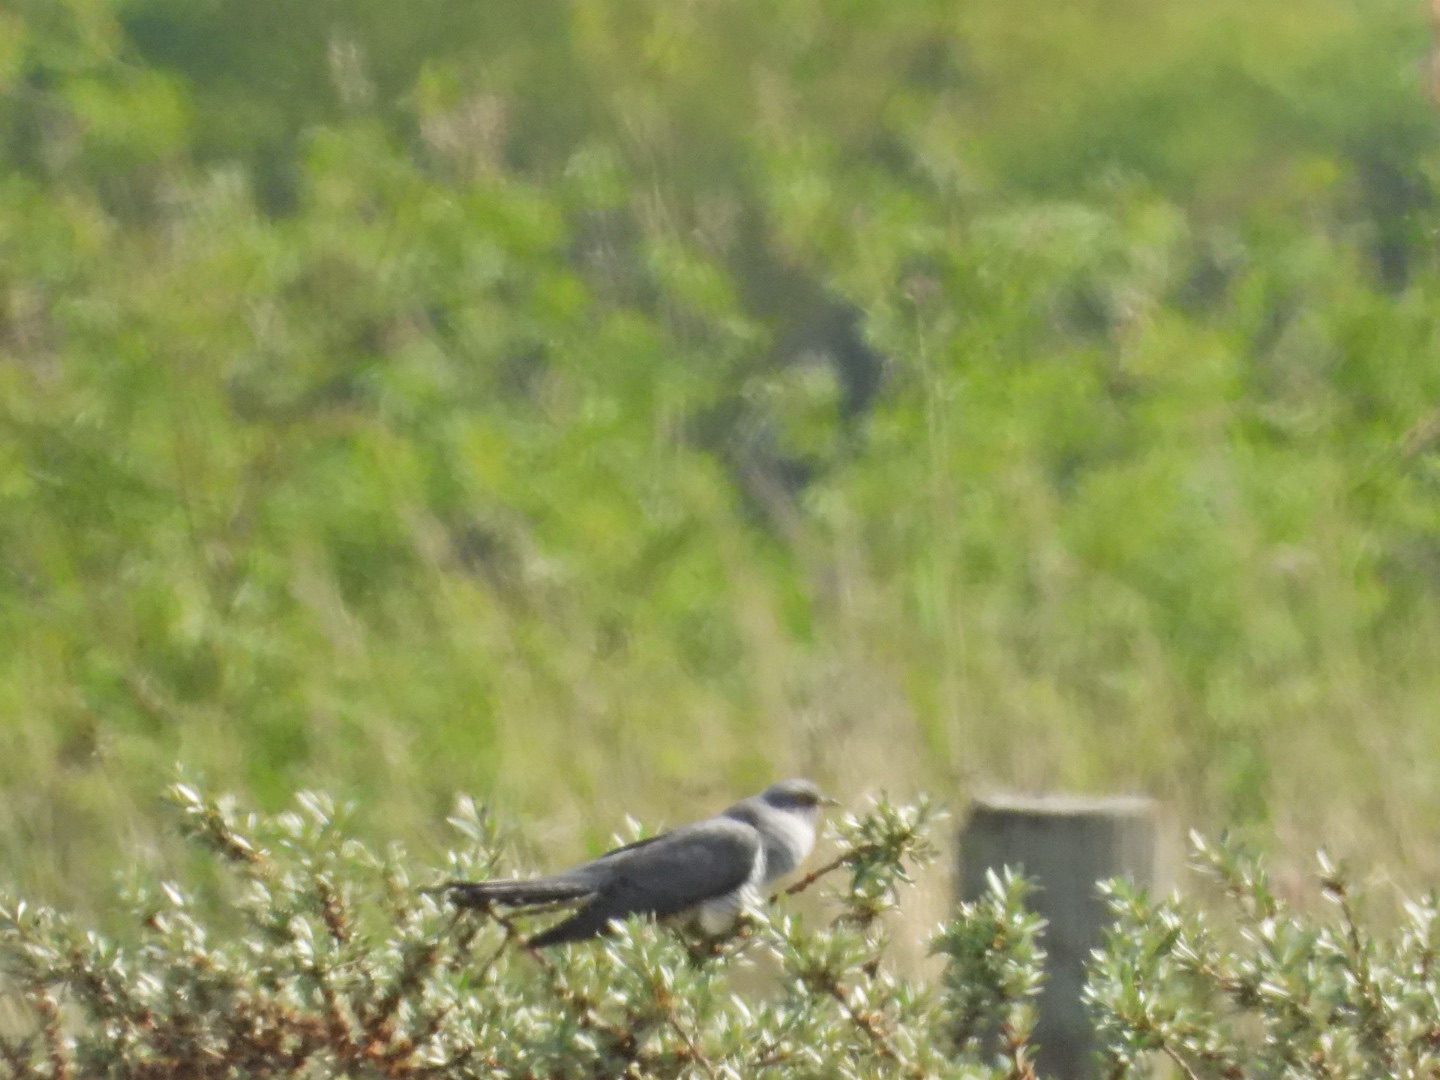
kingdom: Animalia
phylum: Chordata
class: Aves
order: Cuculiformes
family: Cuculidae
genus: Cuculus
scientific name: Cuculus canorus
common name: Gøg
